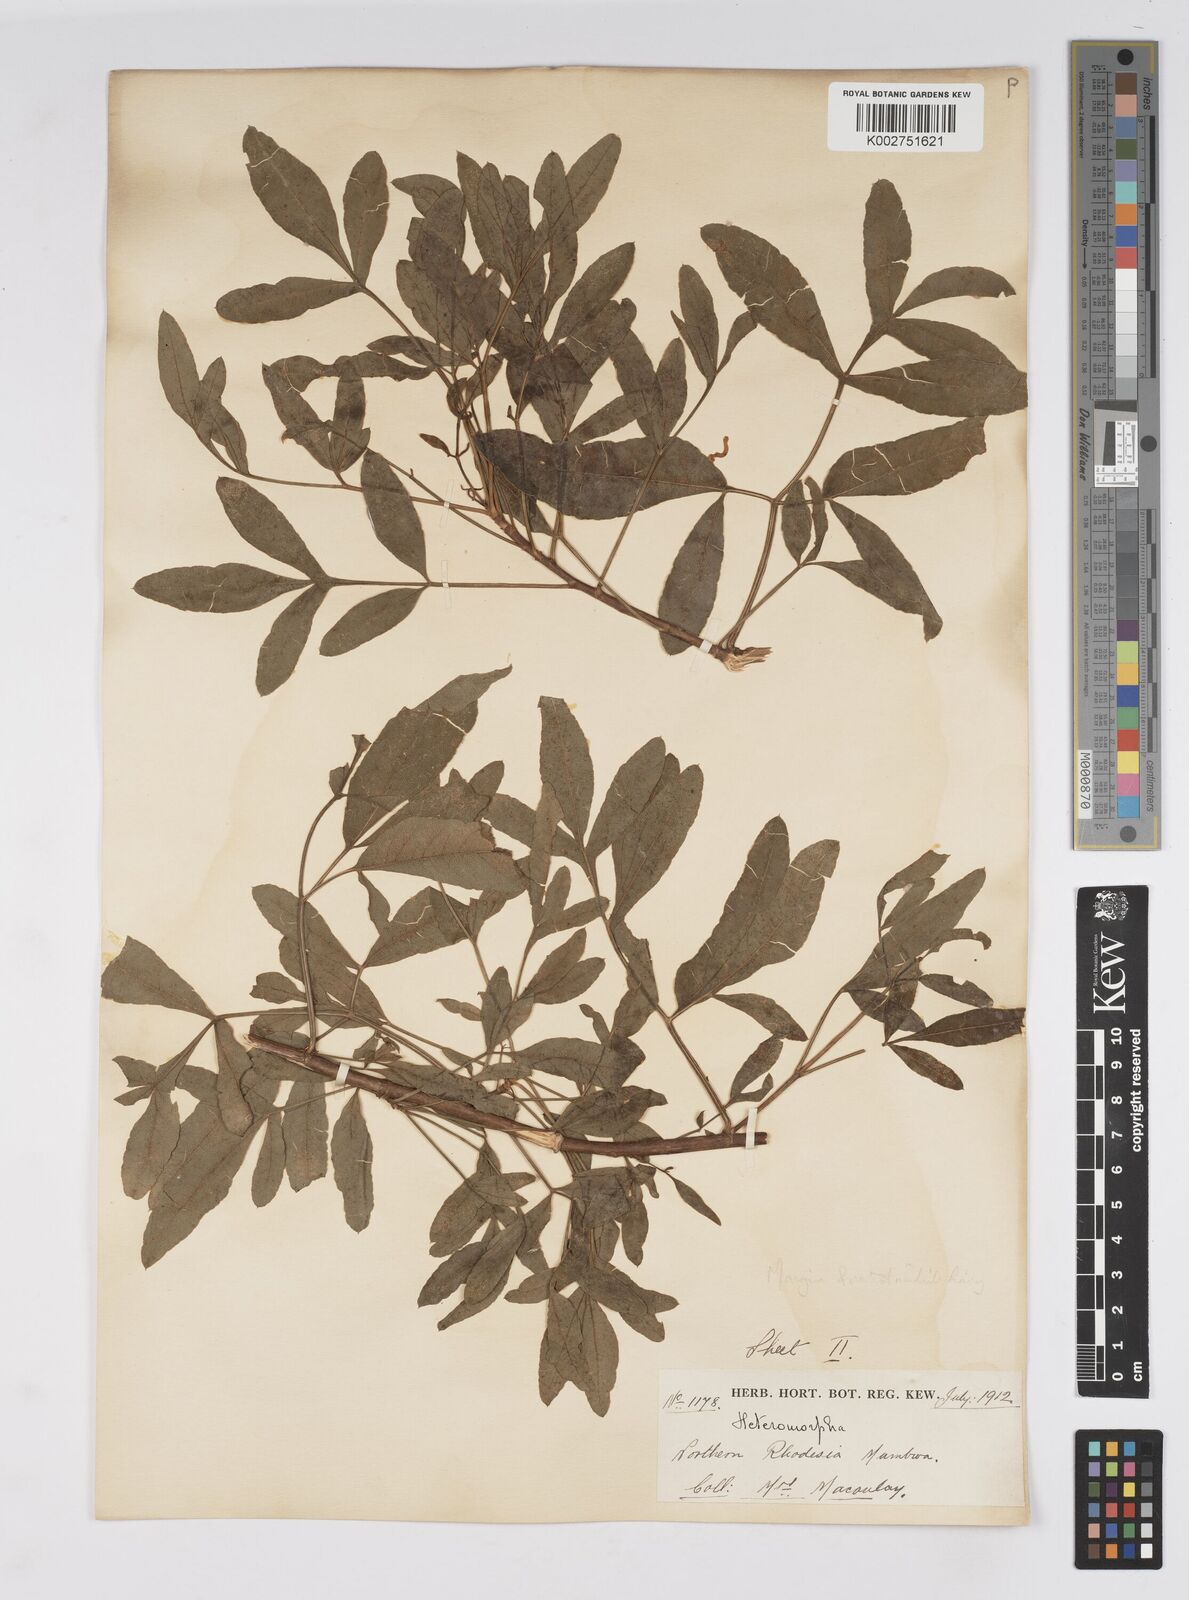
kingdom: Plantae
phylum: Tracheophyta
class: Magnoliopsida
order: Apiales
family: Apiaceae
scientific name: Apiaceae
